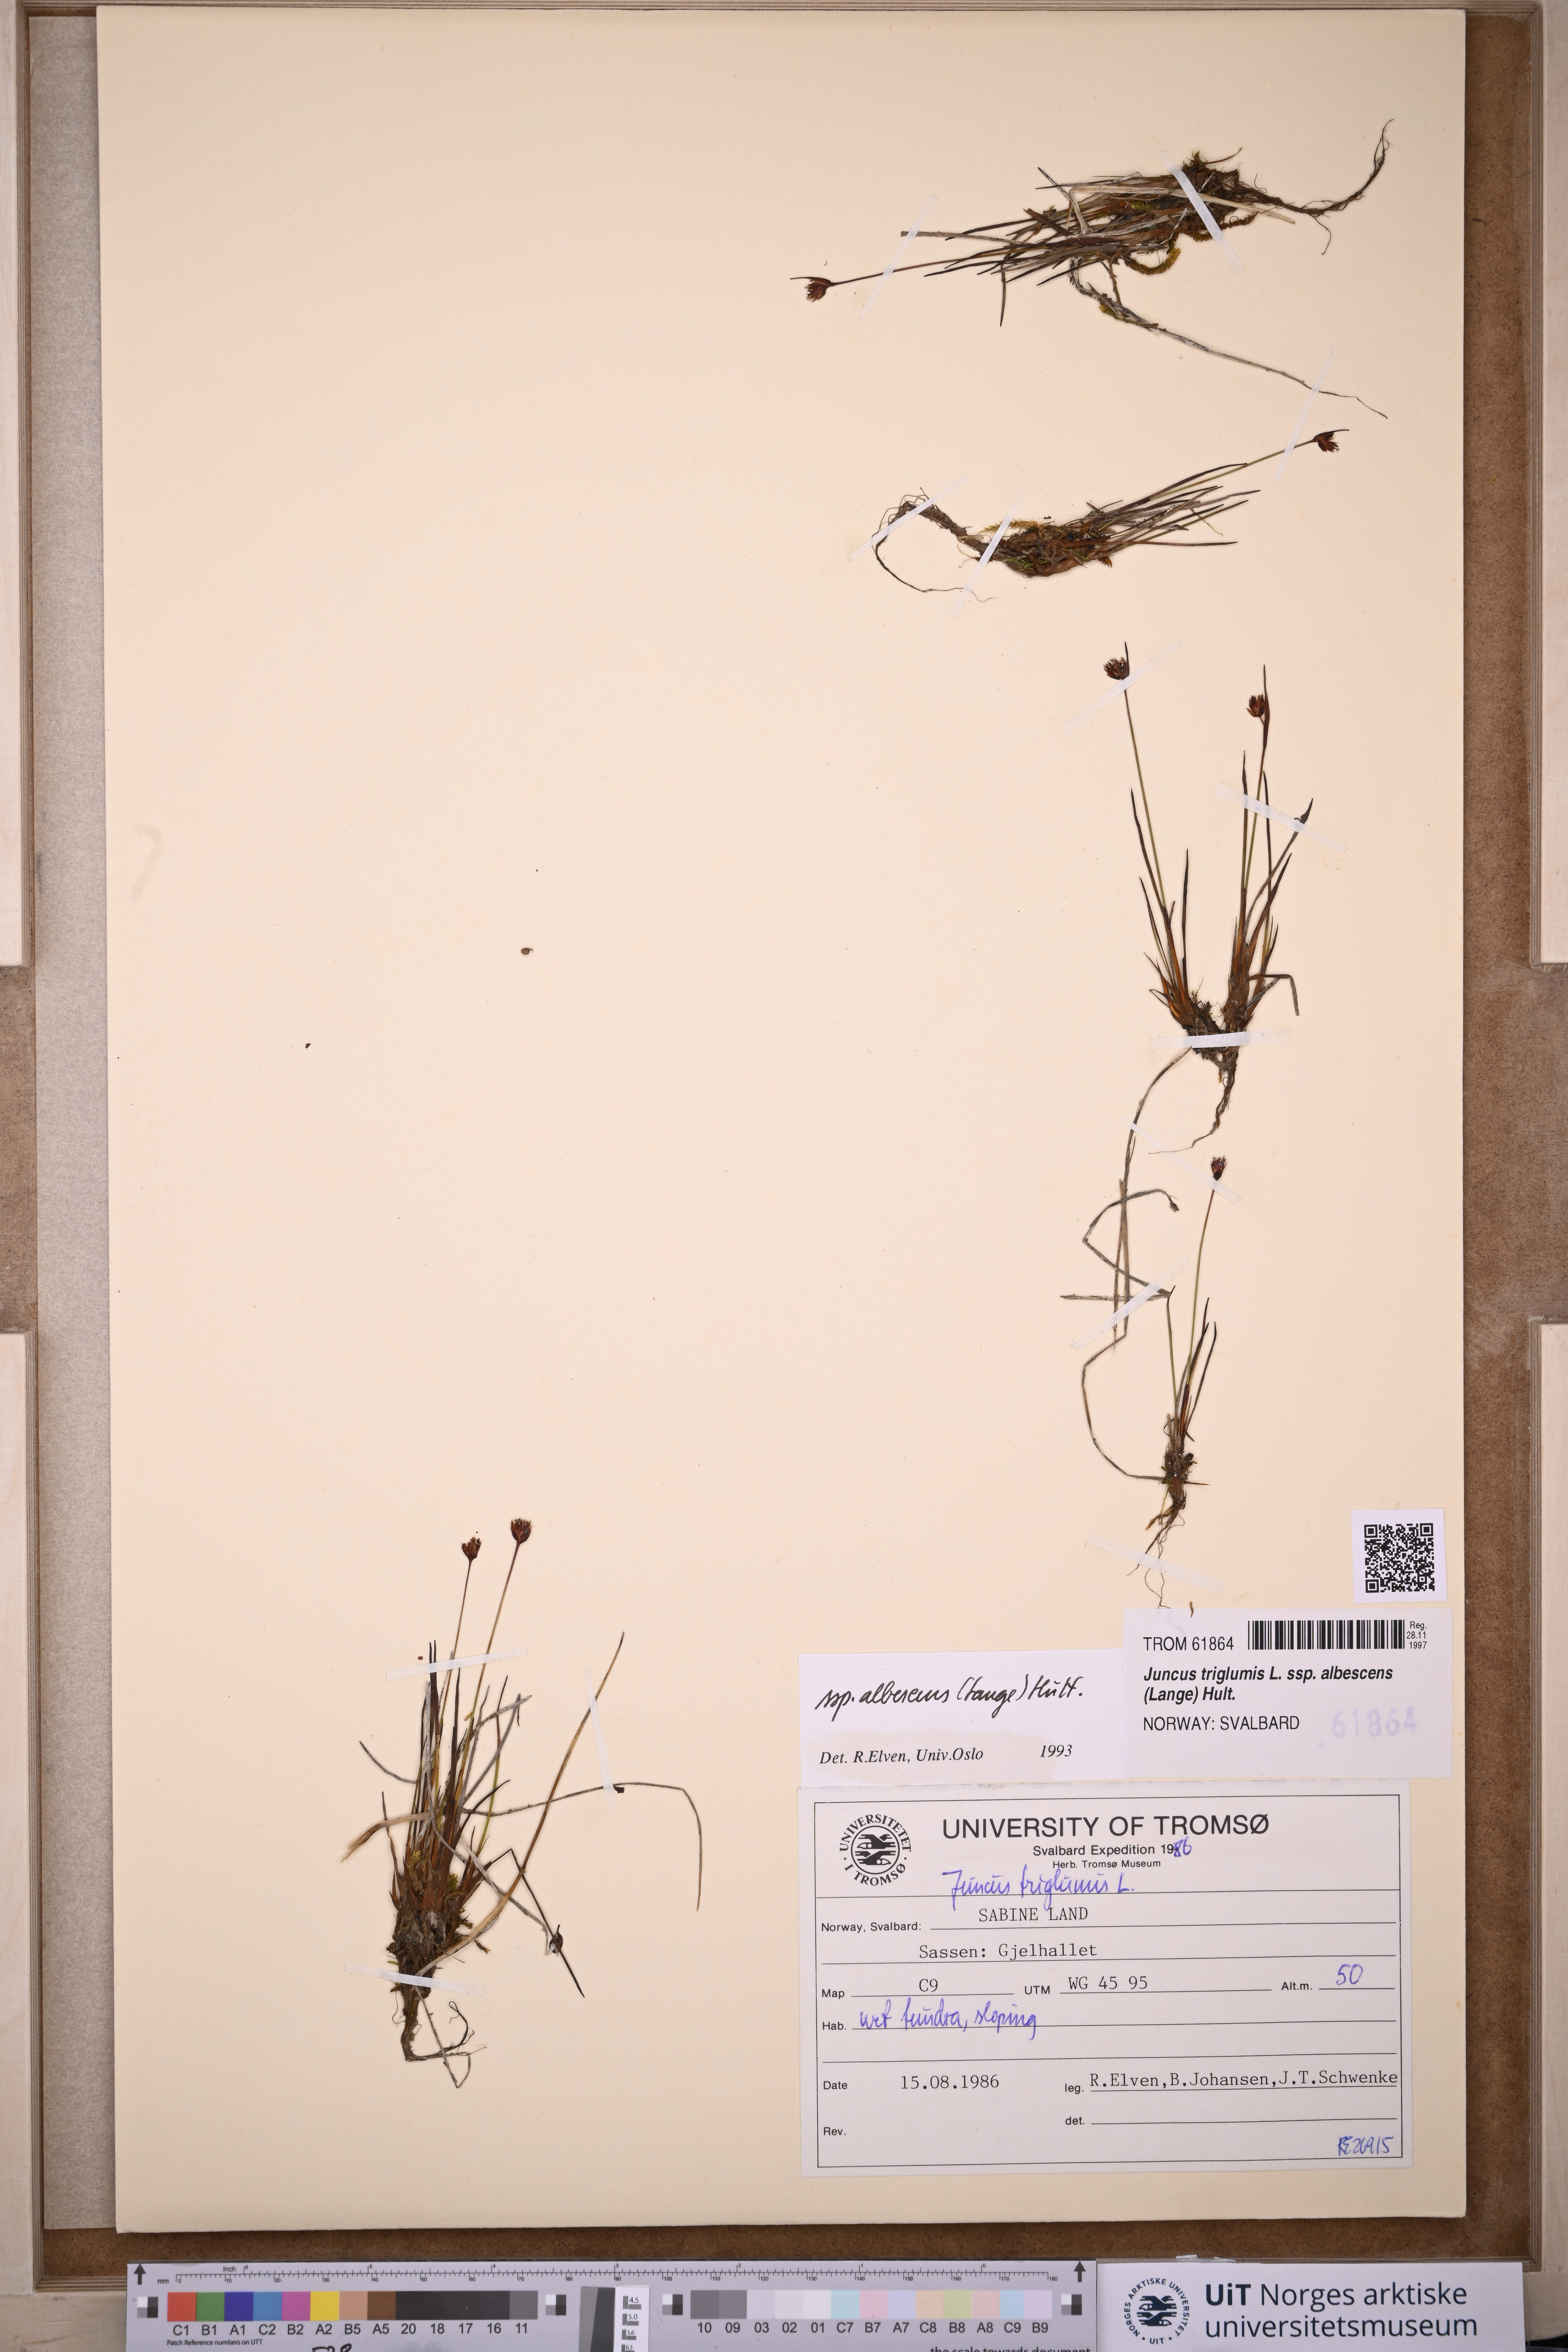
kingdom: Plantae
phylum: Tracheophyta
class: Liliopsida
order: Poales
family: Juncaceae
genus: Juncus
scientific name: Juncus albescens
